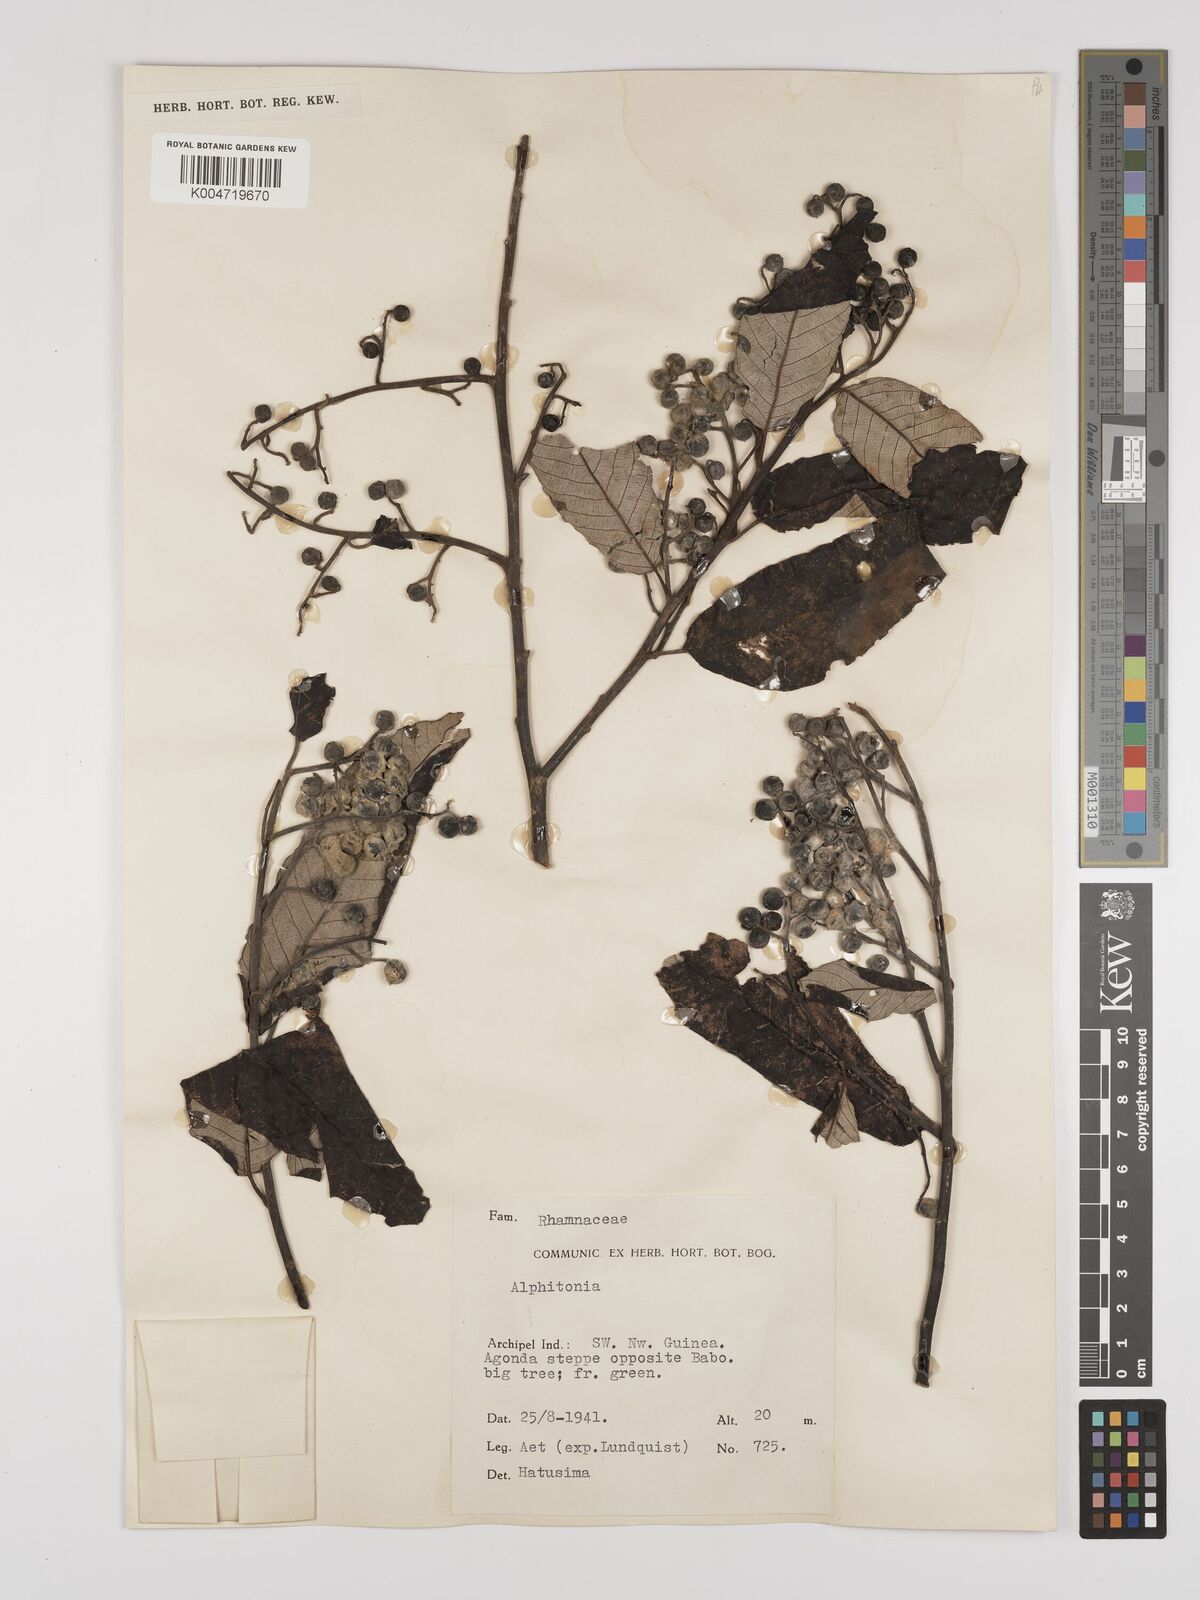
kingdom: Plantae
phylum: Tracheophyta
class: Magnoliopsida
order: Rosales
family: Rhamnaceae
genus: Alphitonia
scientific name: Alphitonia
